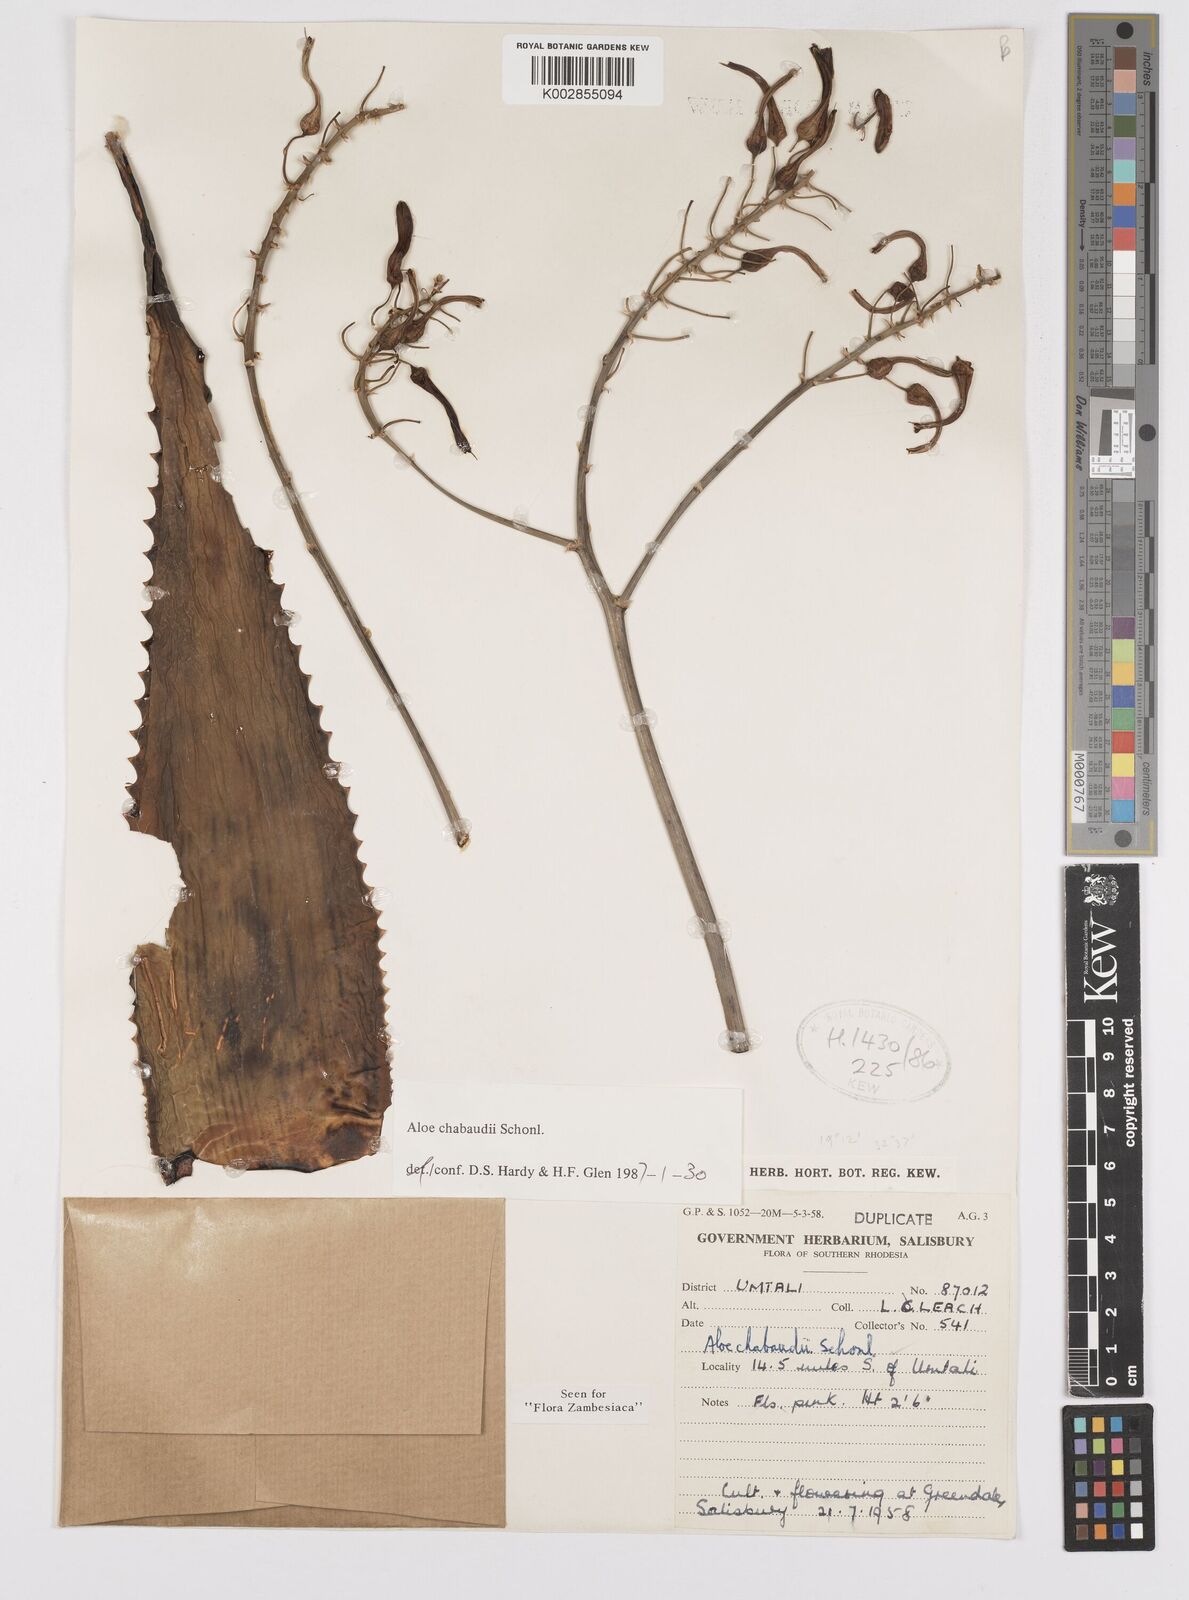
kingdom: Plantae
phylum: Tracheophyta
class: Liliopsida
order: Asparagales
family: Asphodelaceae
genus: Aloe
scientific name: Aloe chabaudii
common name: Chabaud's aloe
